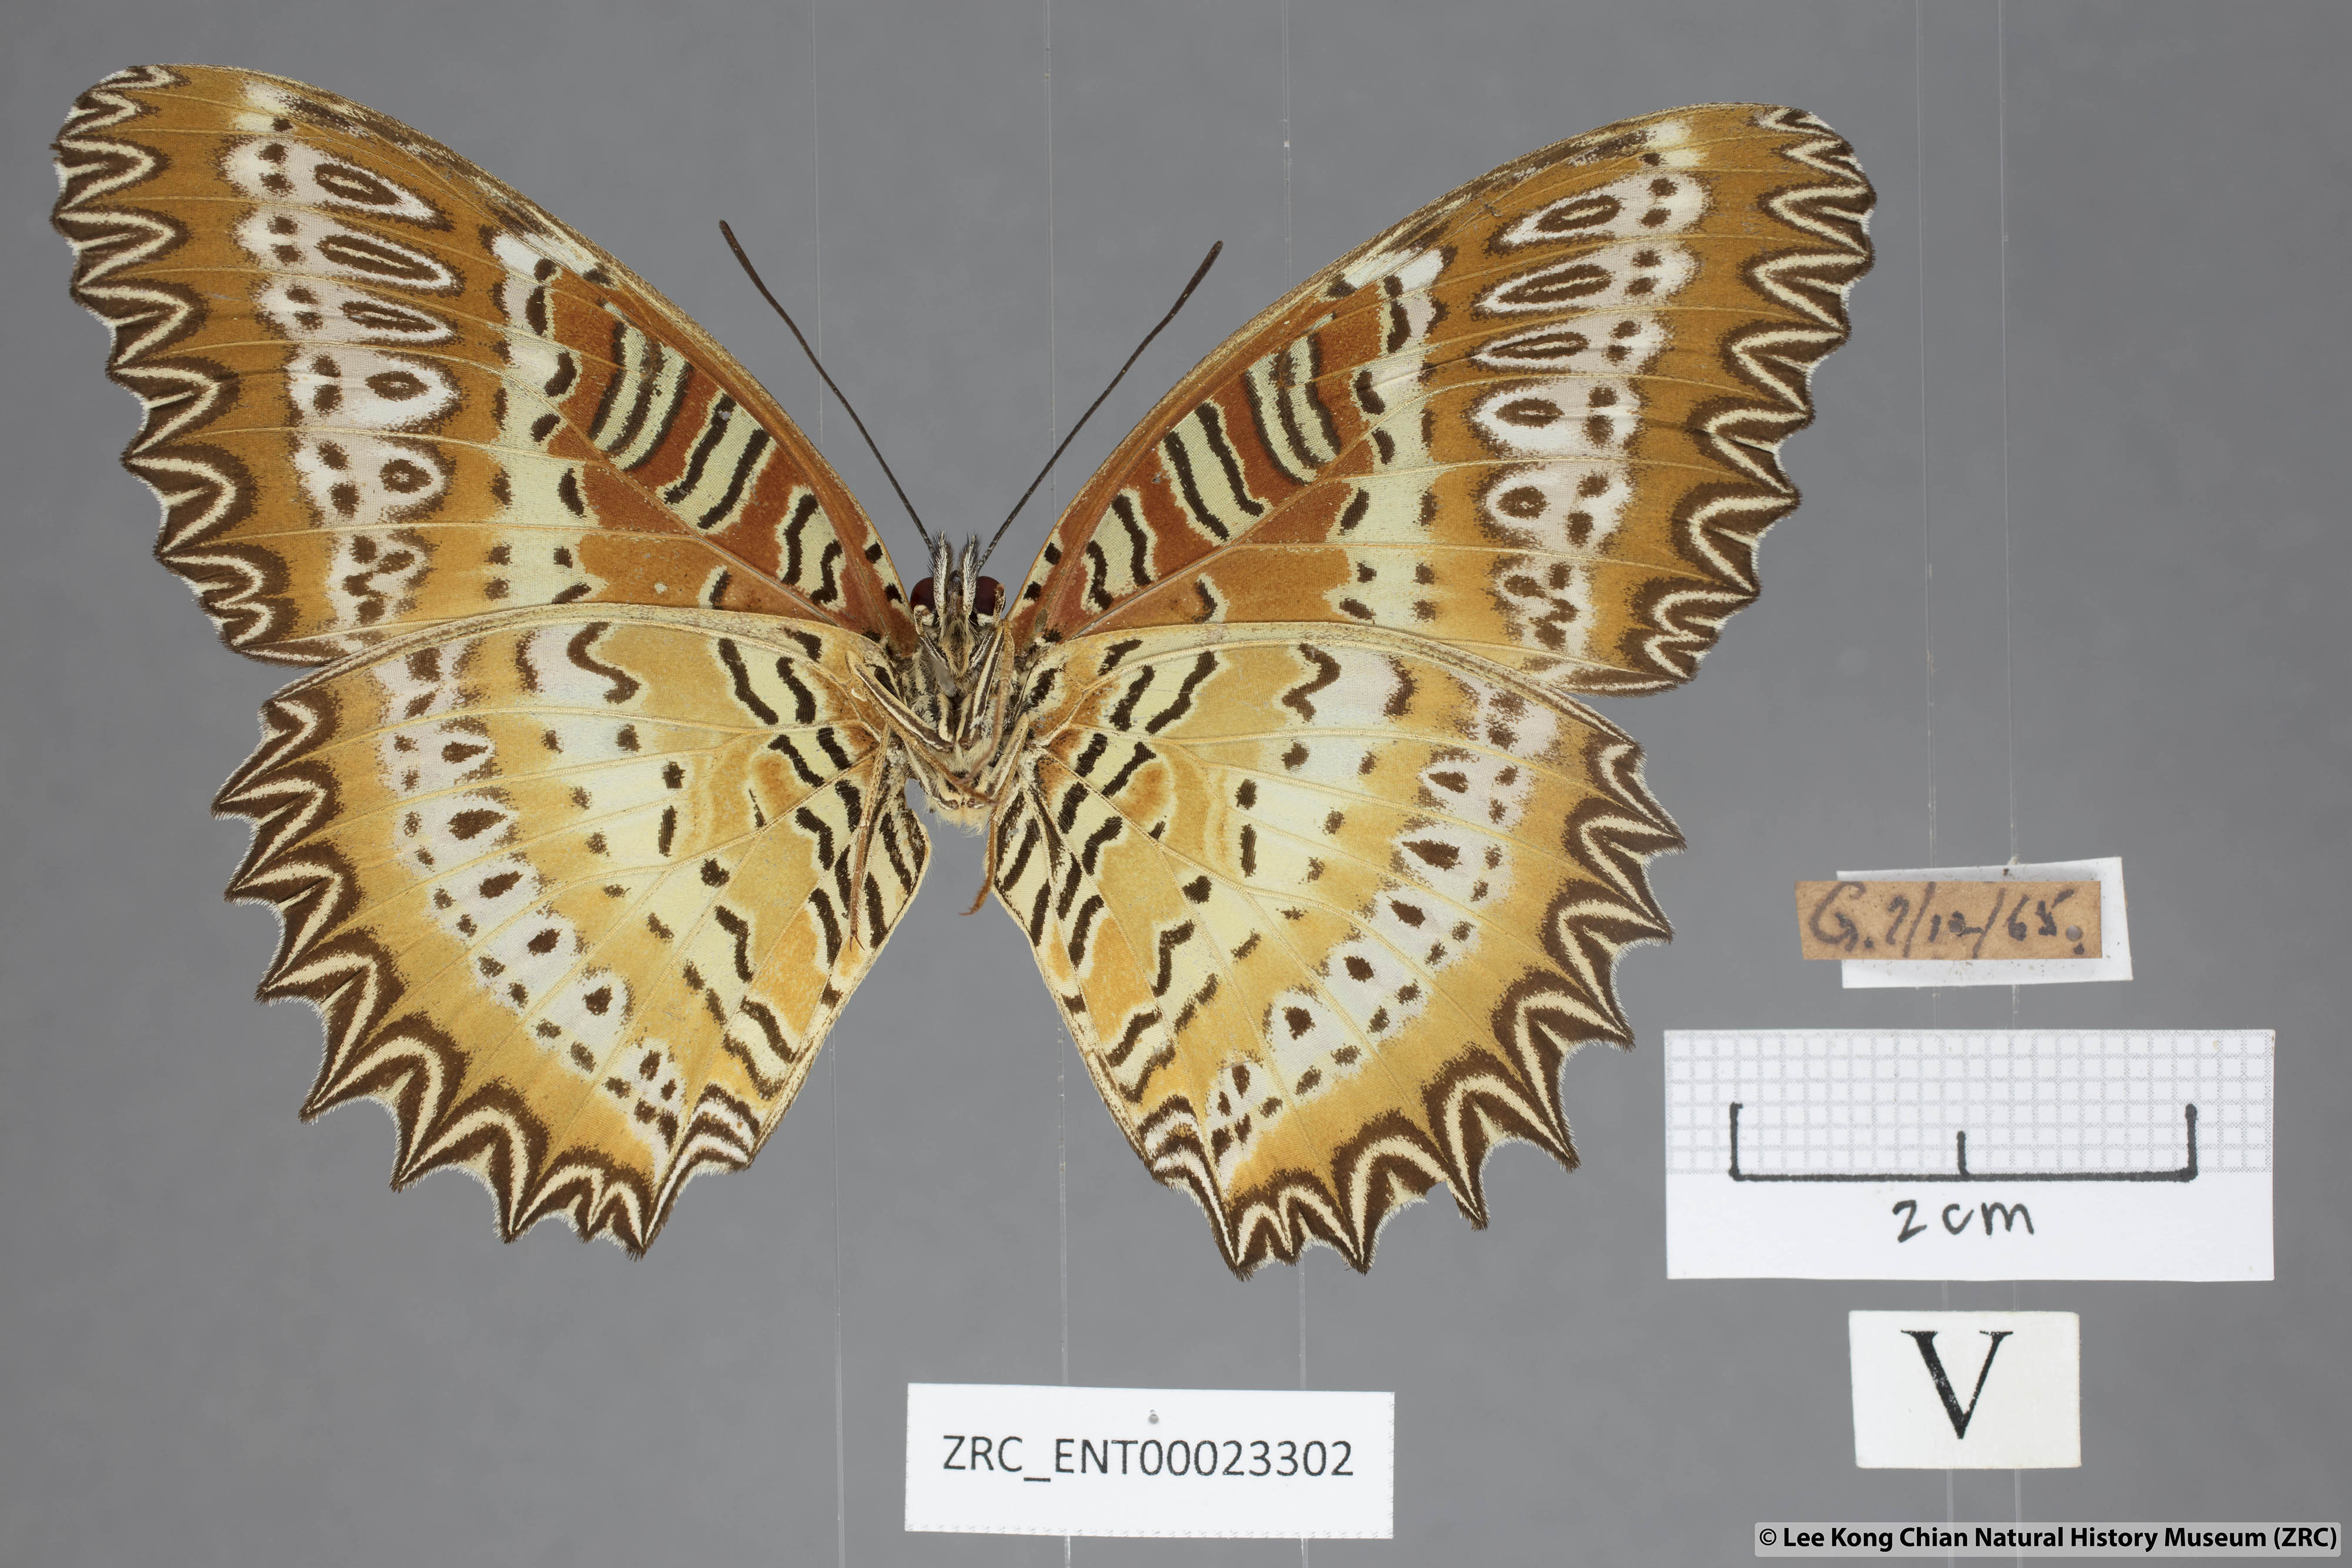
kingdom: Animalia
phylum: Arthropoda
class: Insecta
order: Lepidoptera
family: Nymphalidae
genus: Cethosia
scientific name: Cethosia biblis
